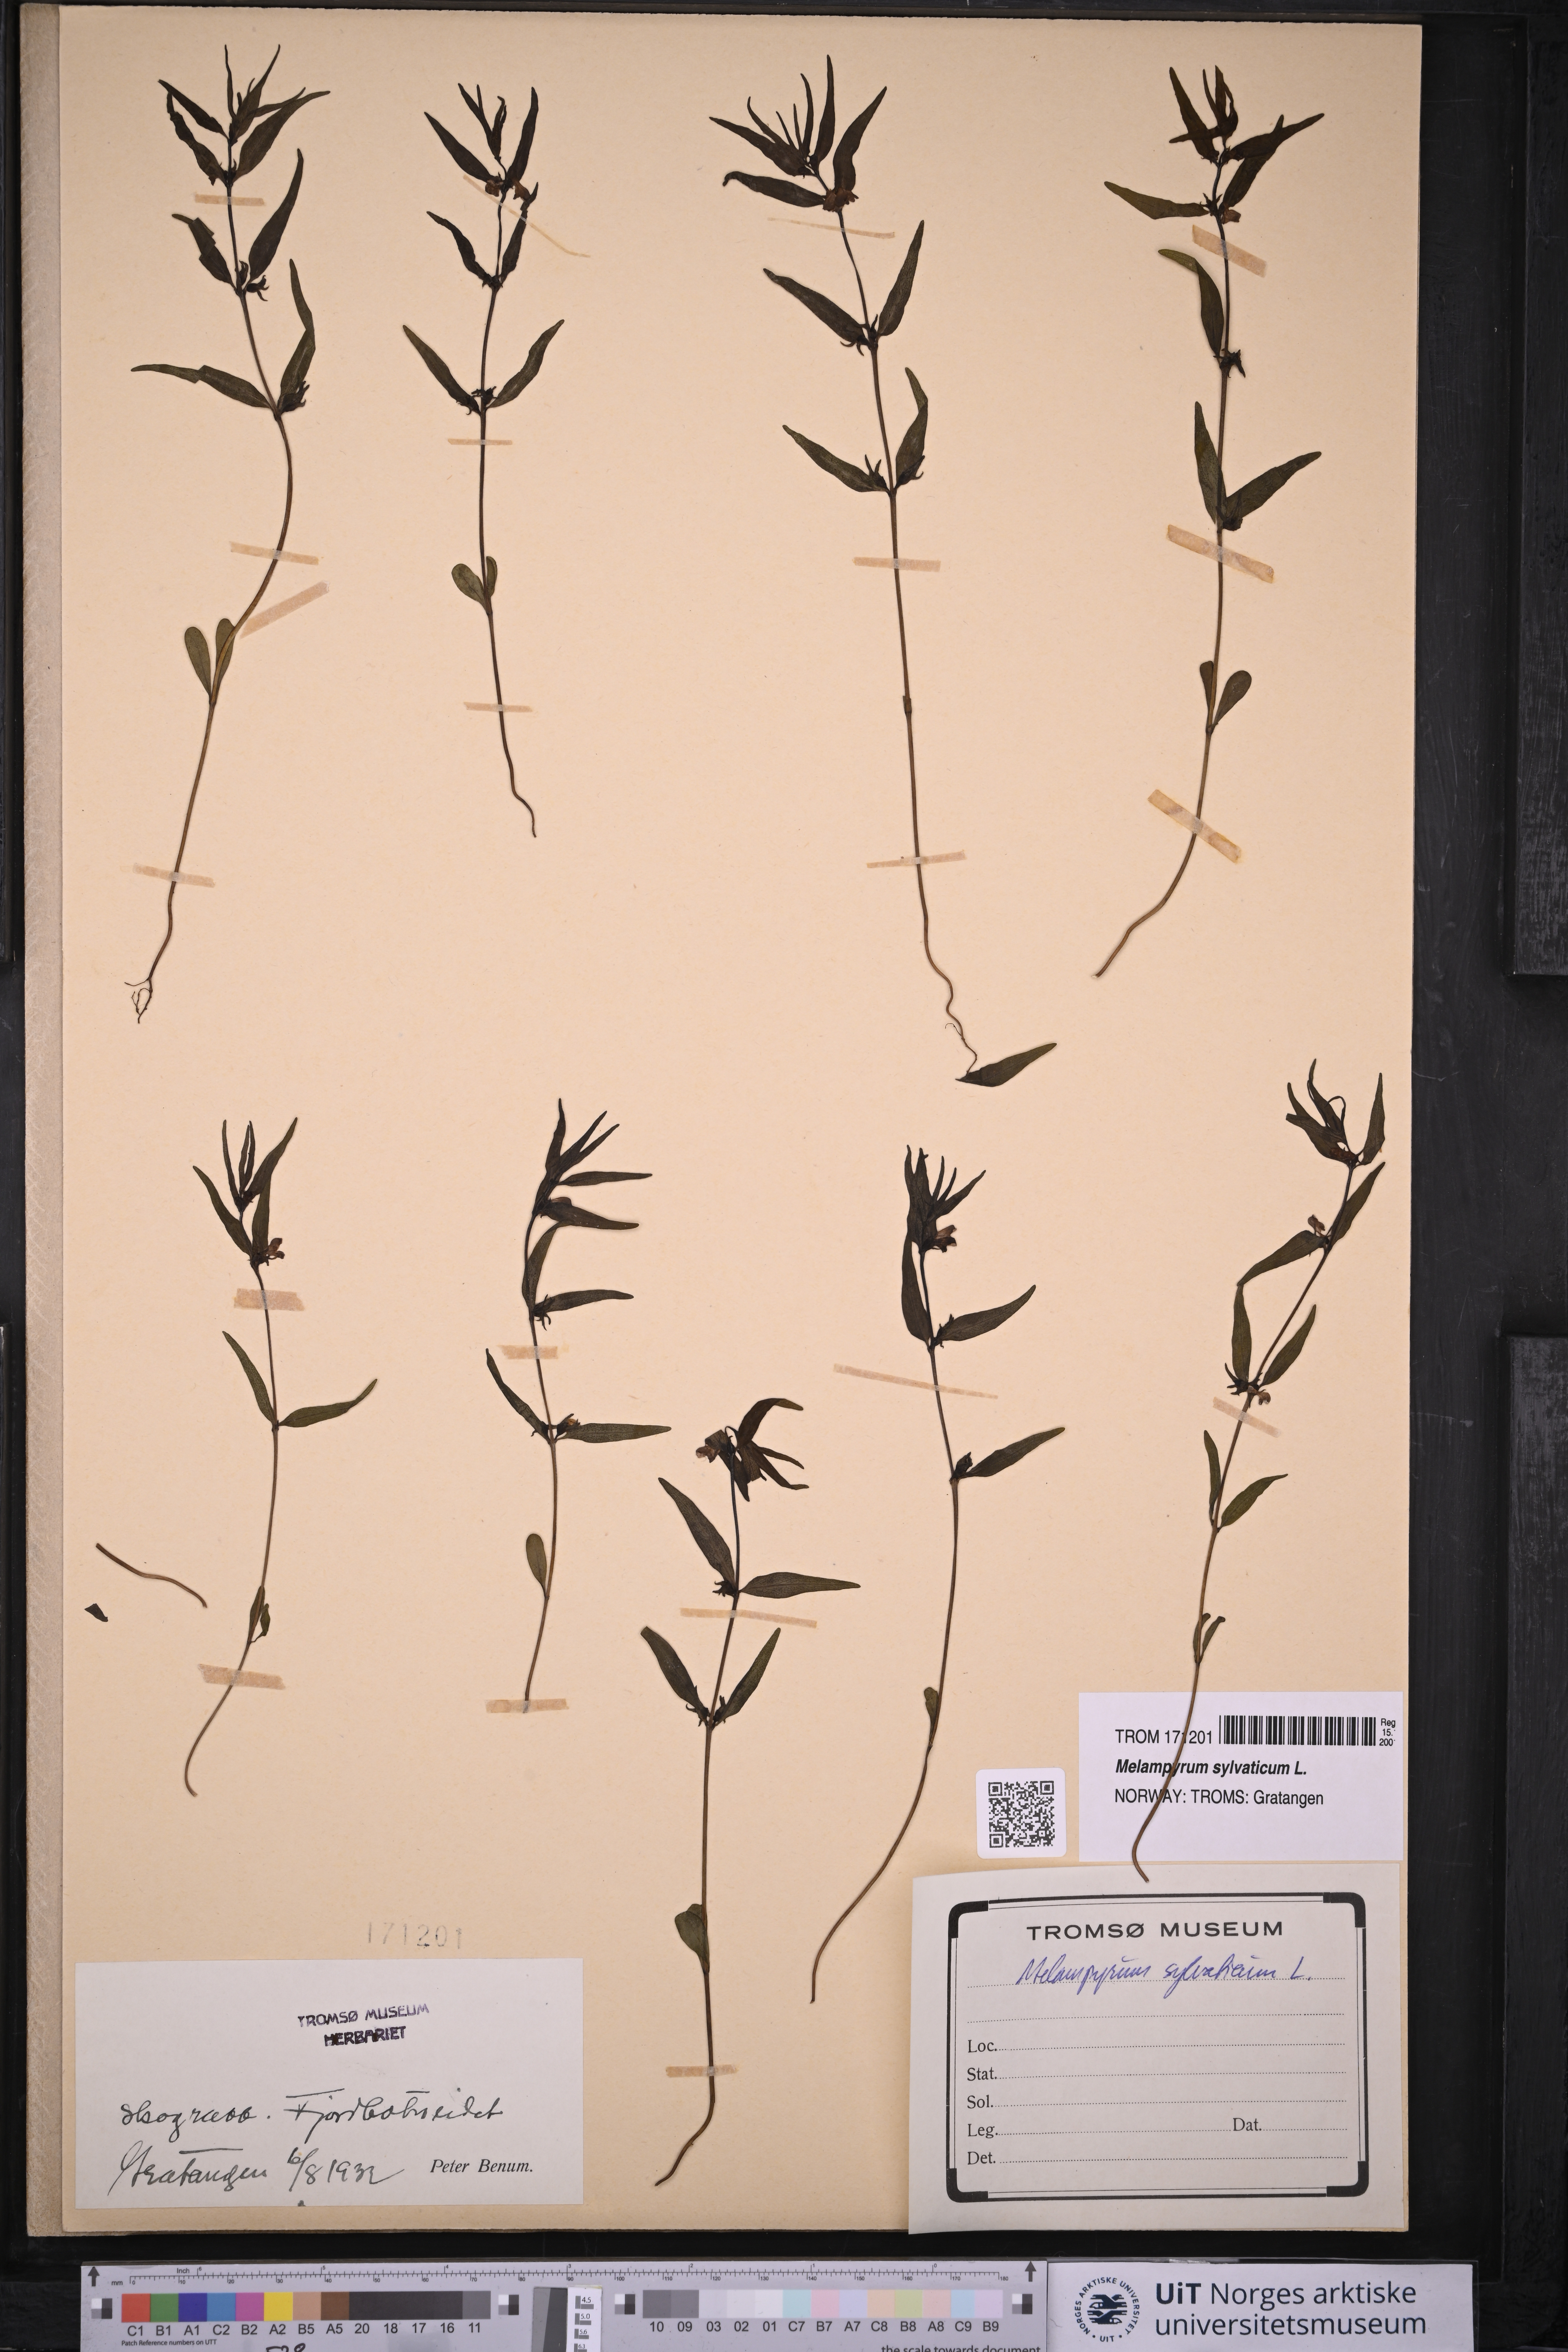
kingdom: Plantae
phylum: Tracheophyta
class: Magnoliopsida
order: Lamiales
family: Orobanchaceae
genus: Melampyrum
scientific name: Melampyrum sylvaticum
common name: Small cow-wheat
